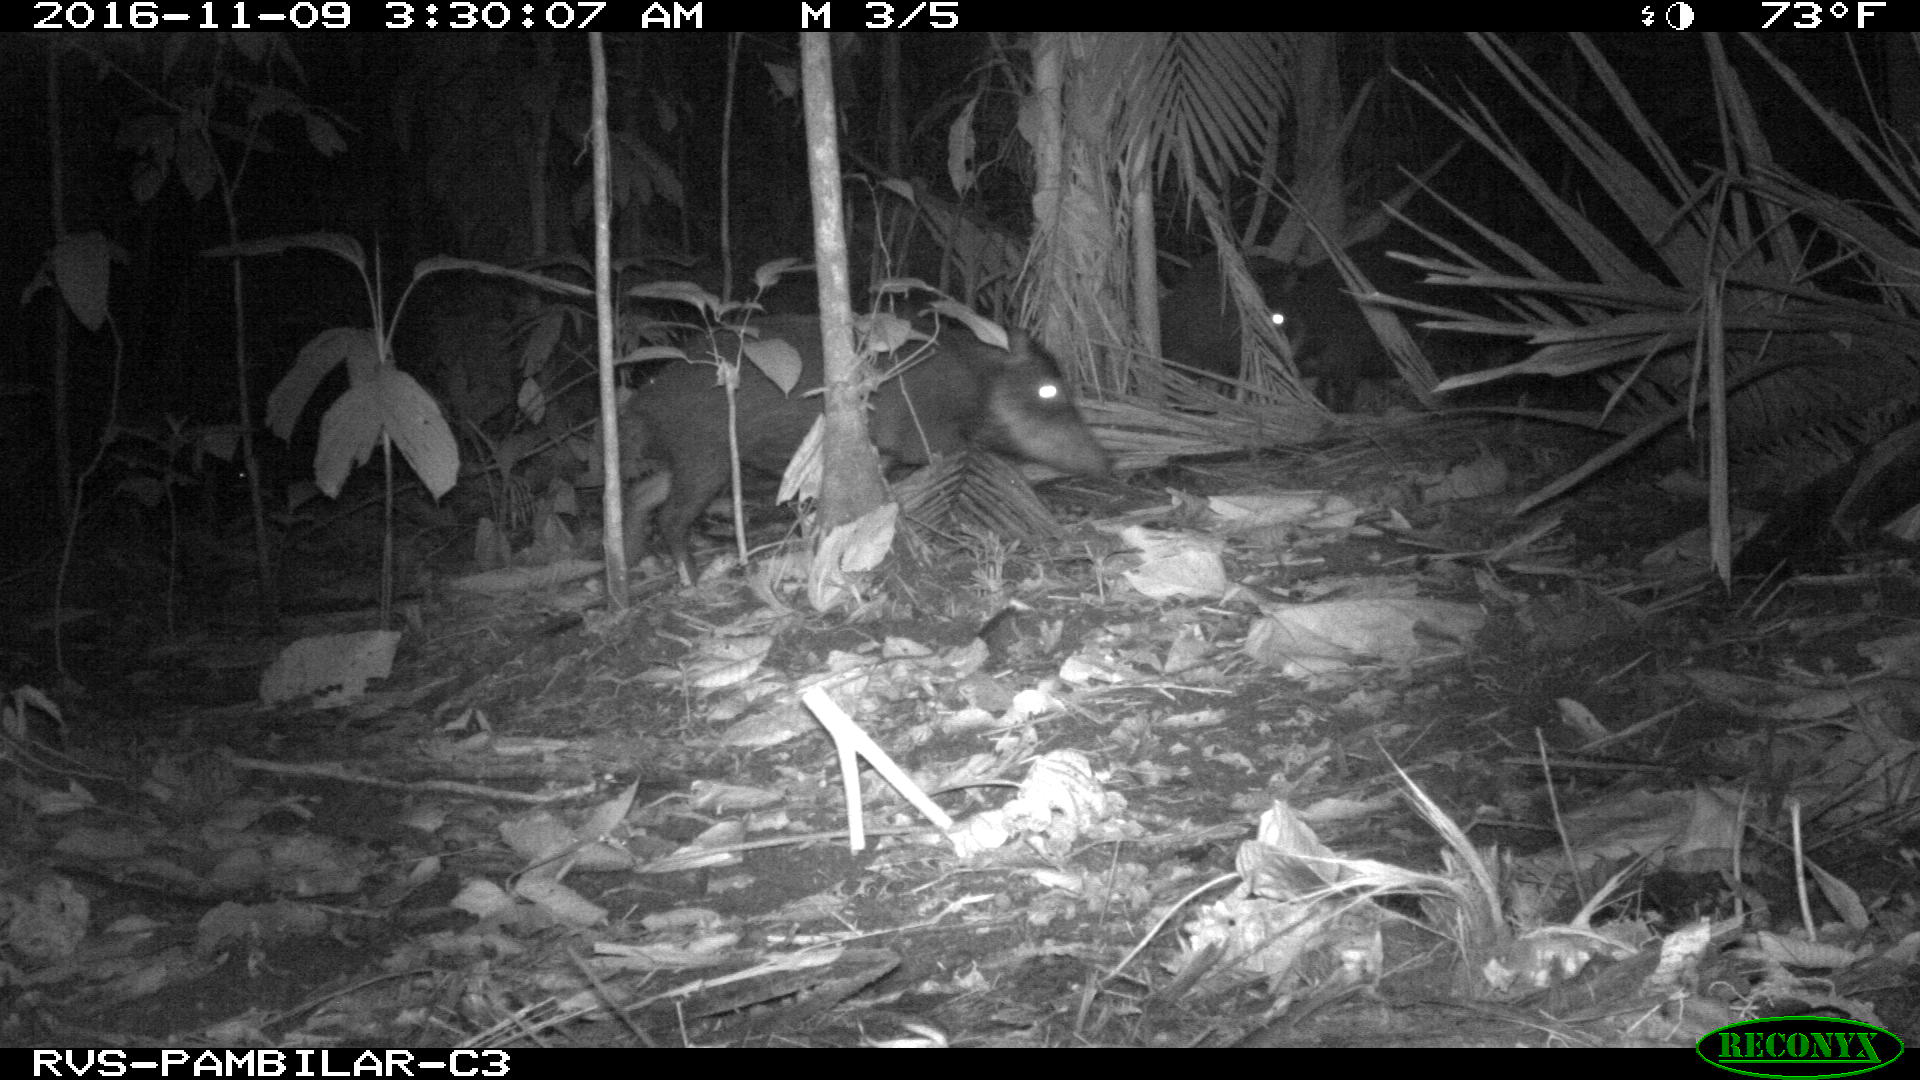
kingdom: Animalia
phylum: Chordata
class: Mammalia
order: Artiodactyla
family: Tayassuidae
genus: Tayassu
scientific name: Tayassu pecari
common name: White-lipped peccary
